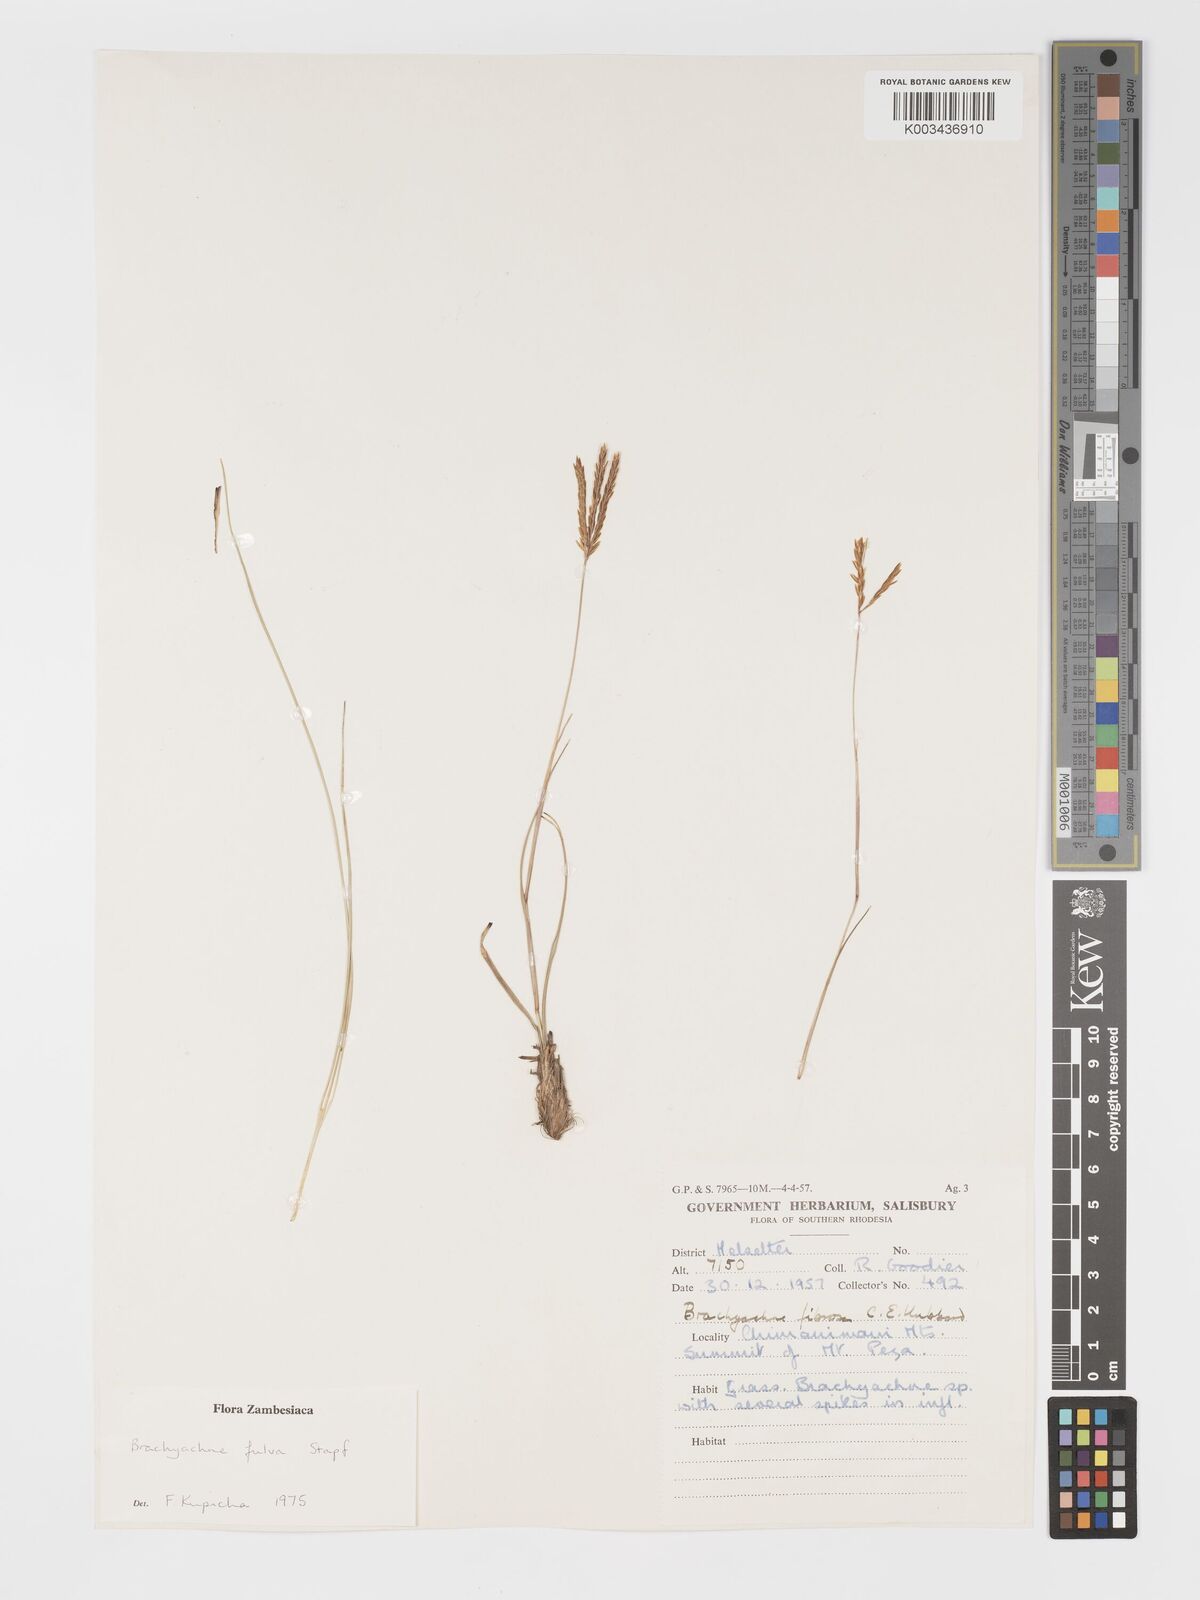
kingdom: Plantae
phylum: Tracheophyta
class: Liliopsida
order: Poales
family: Poaceae
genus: Micrachne
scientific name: Micrachne fulva
